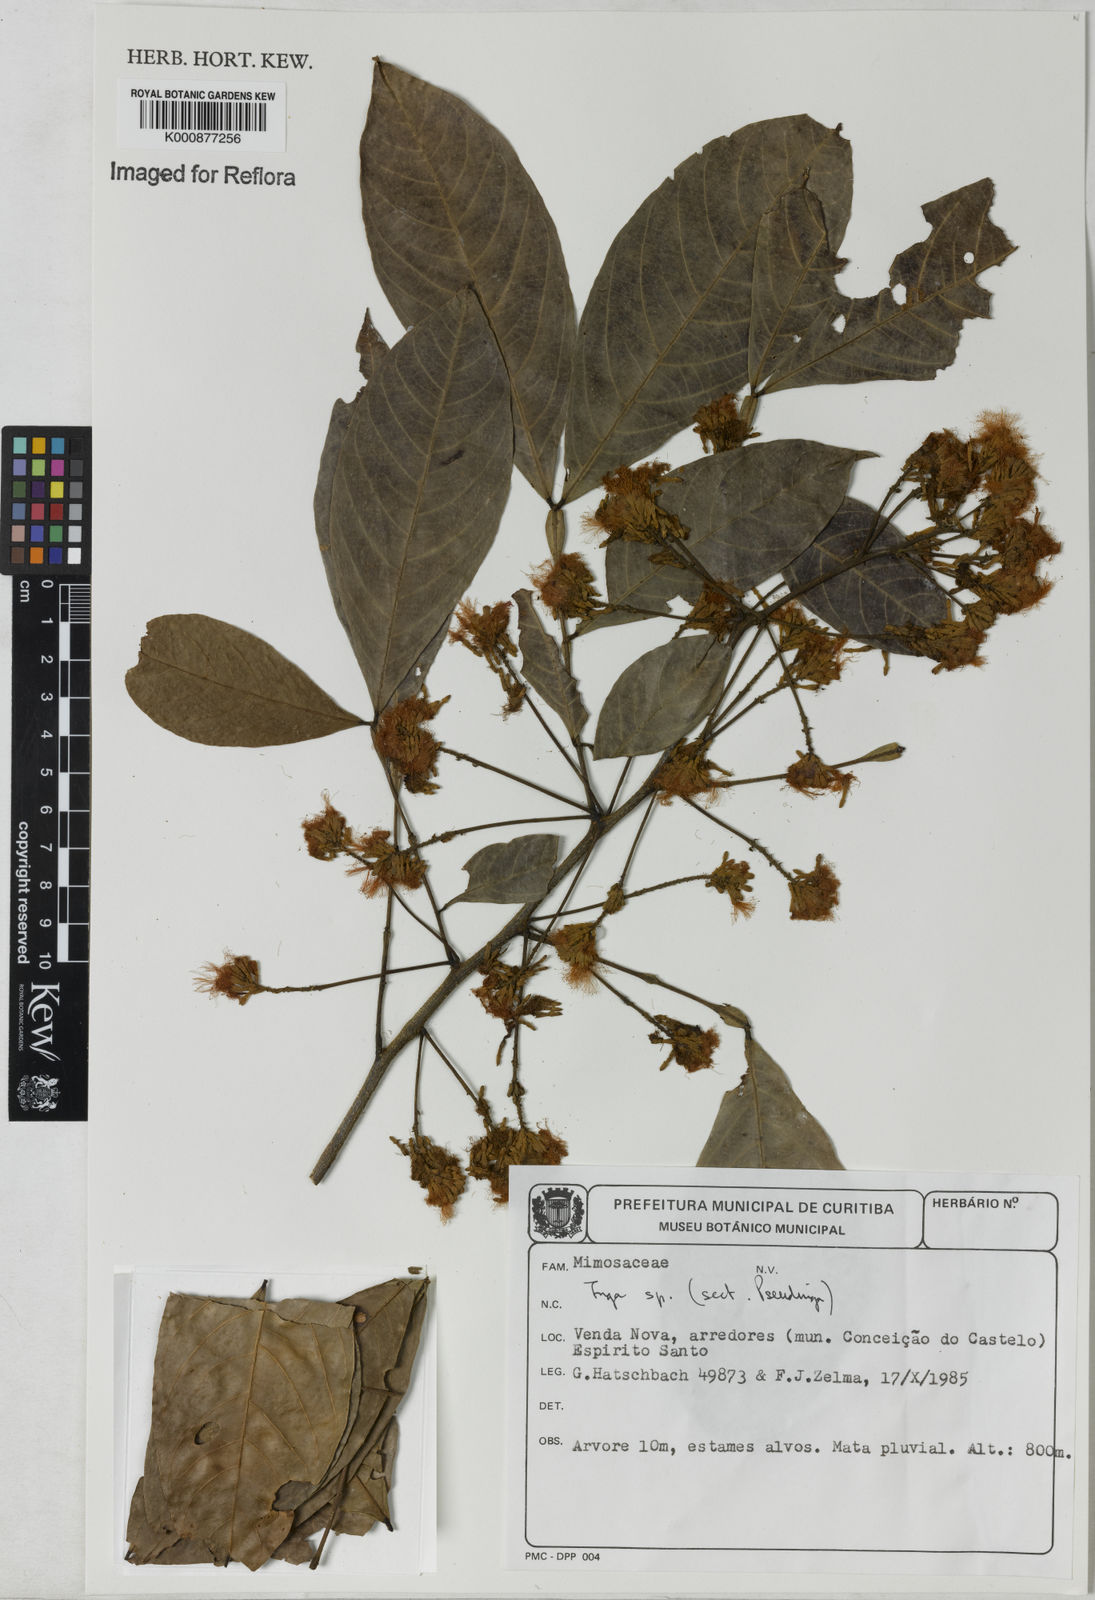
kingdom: Plantae
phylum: Tracheophyta
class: Magnoliopsida
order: Fabales
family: Fabaceae
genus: Inga
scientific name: Inga
